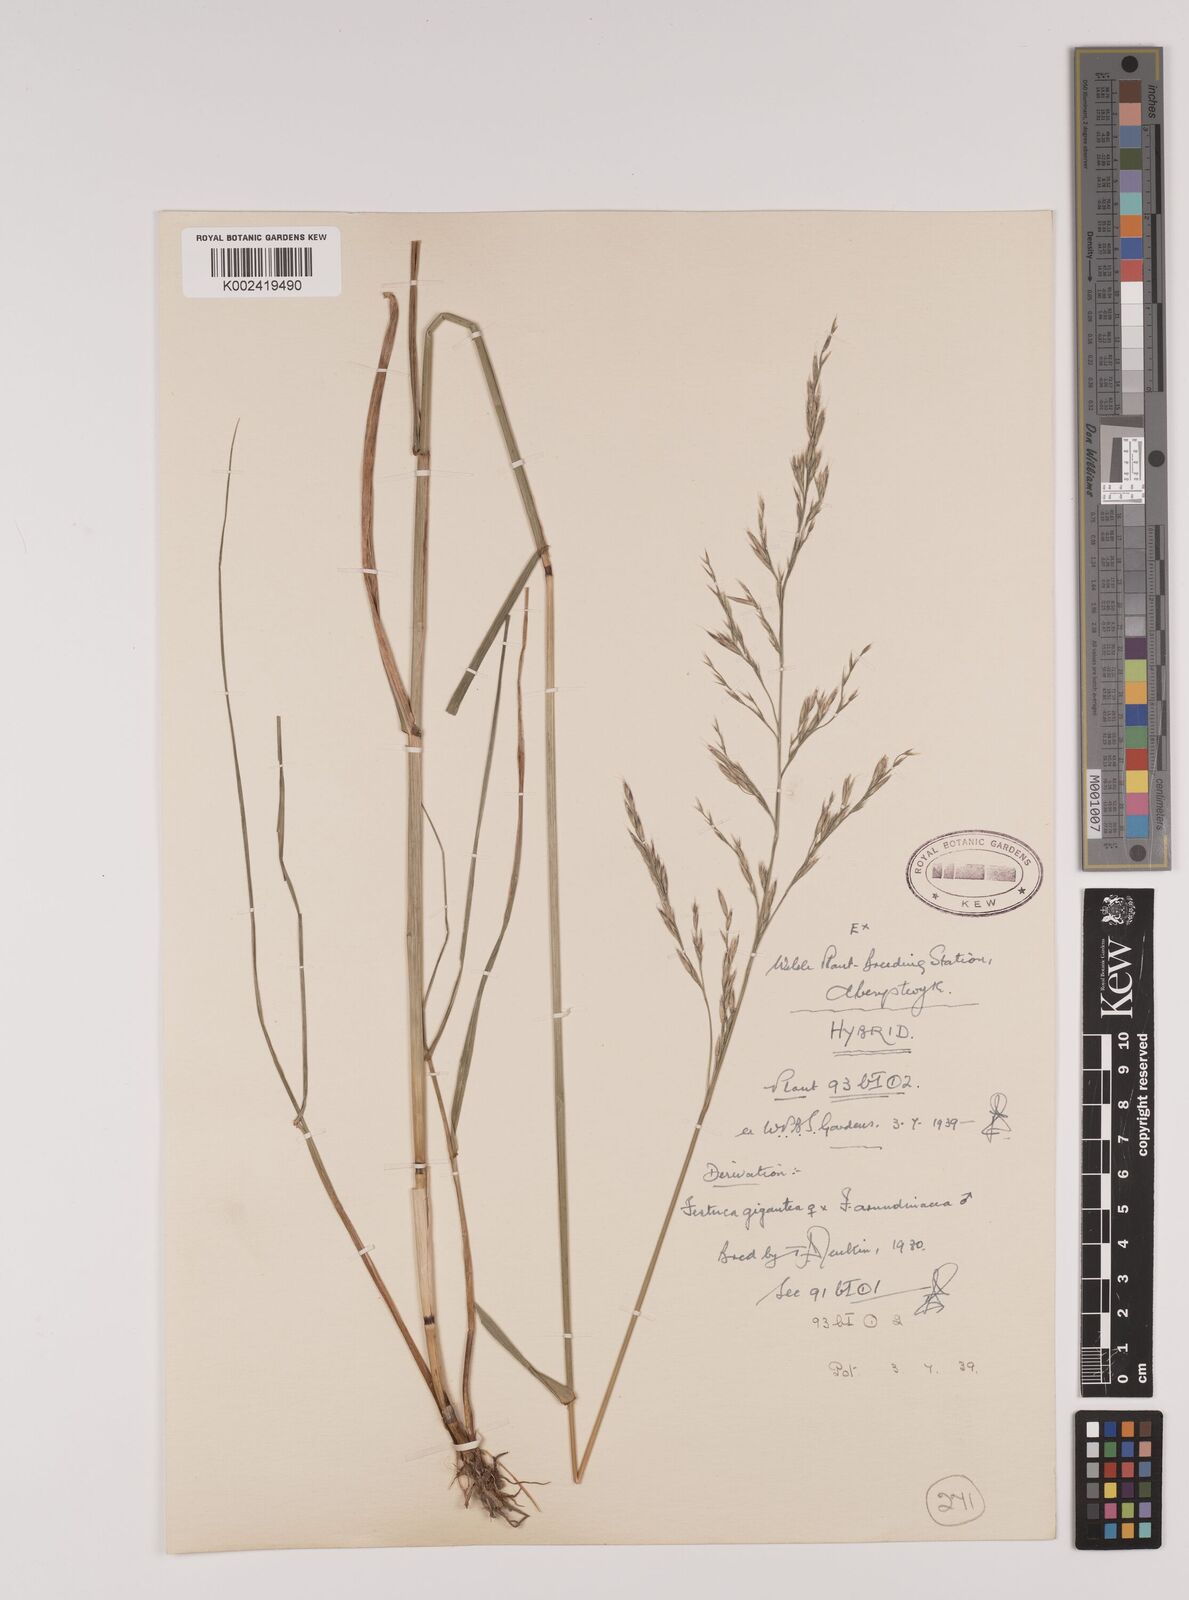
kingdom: Plantae
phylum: Tracheophyta
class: Liliopsida
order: Poales
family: Poaceae
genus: Lolium
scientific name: Lolium giganteum
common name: Giant fescue
